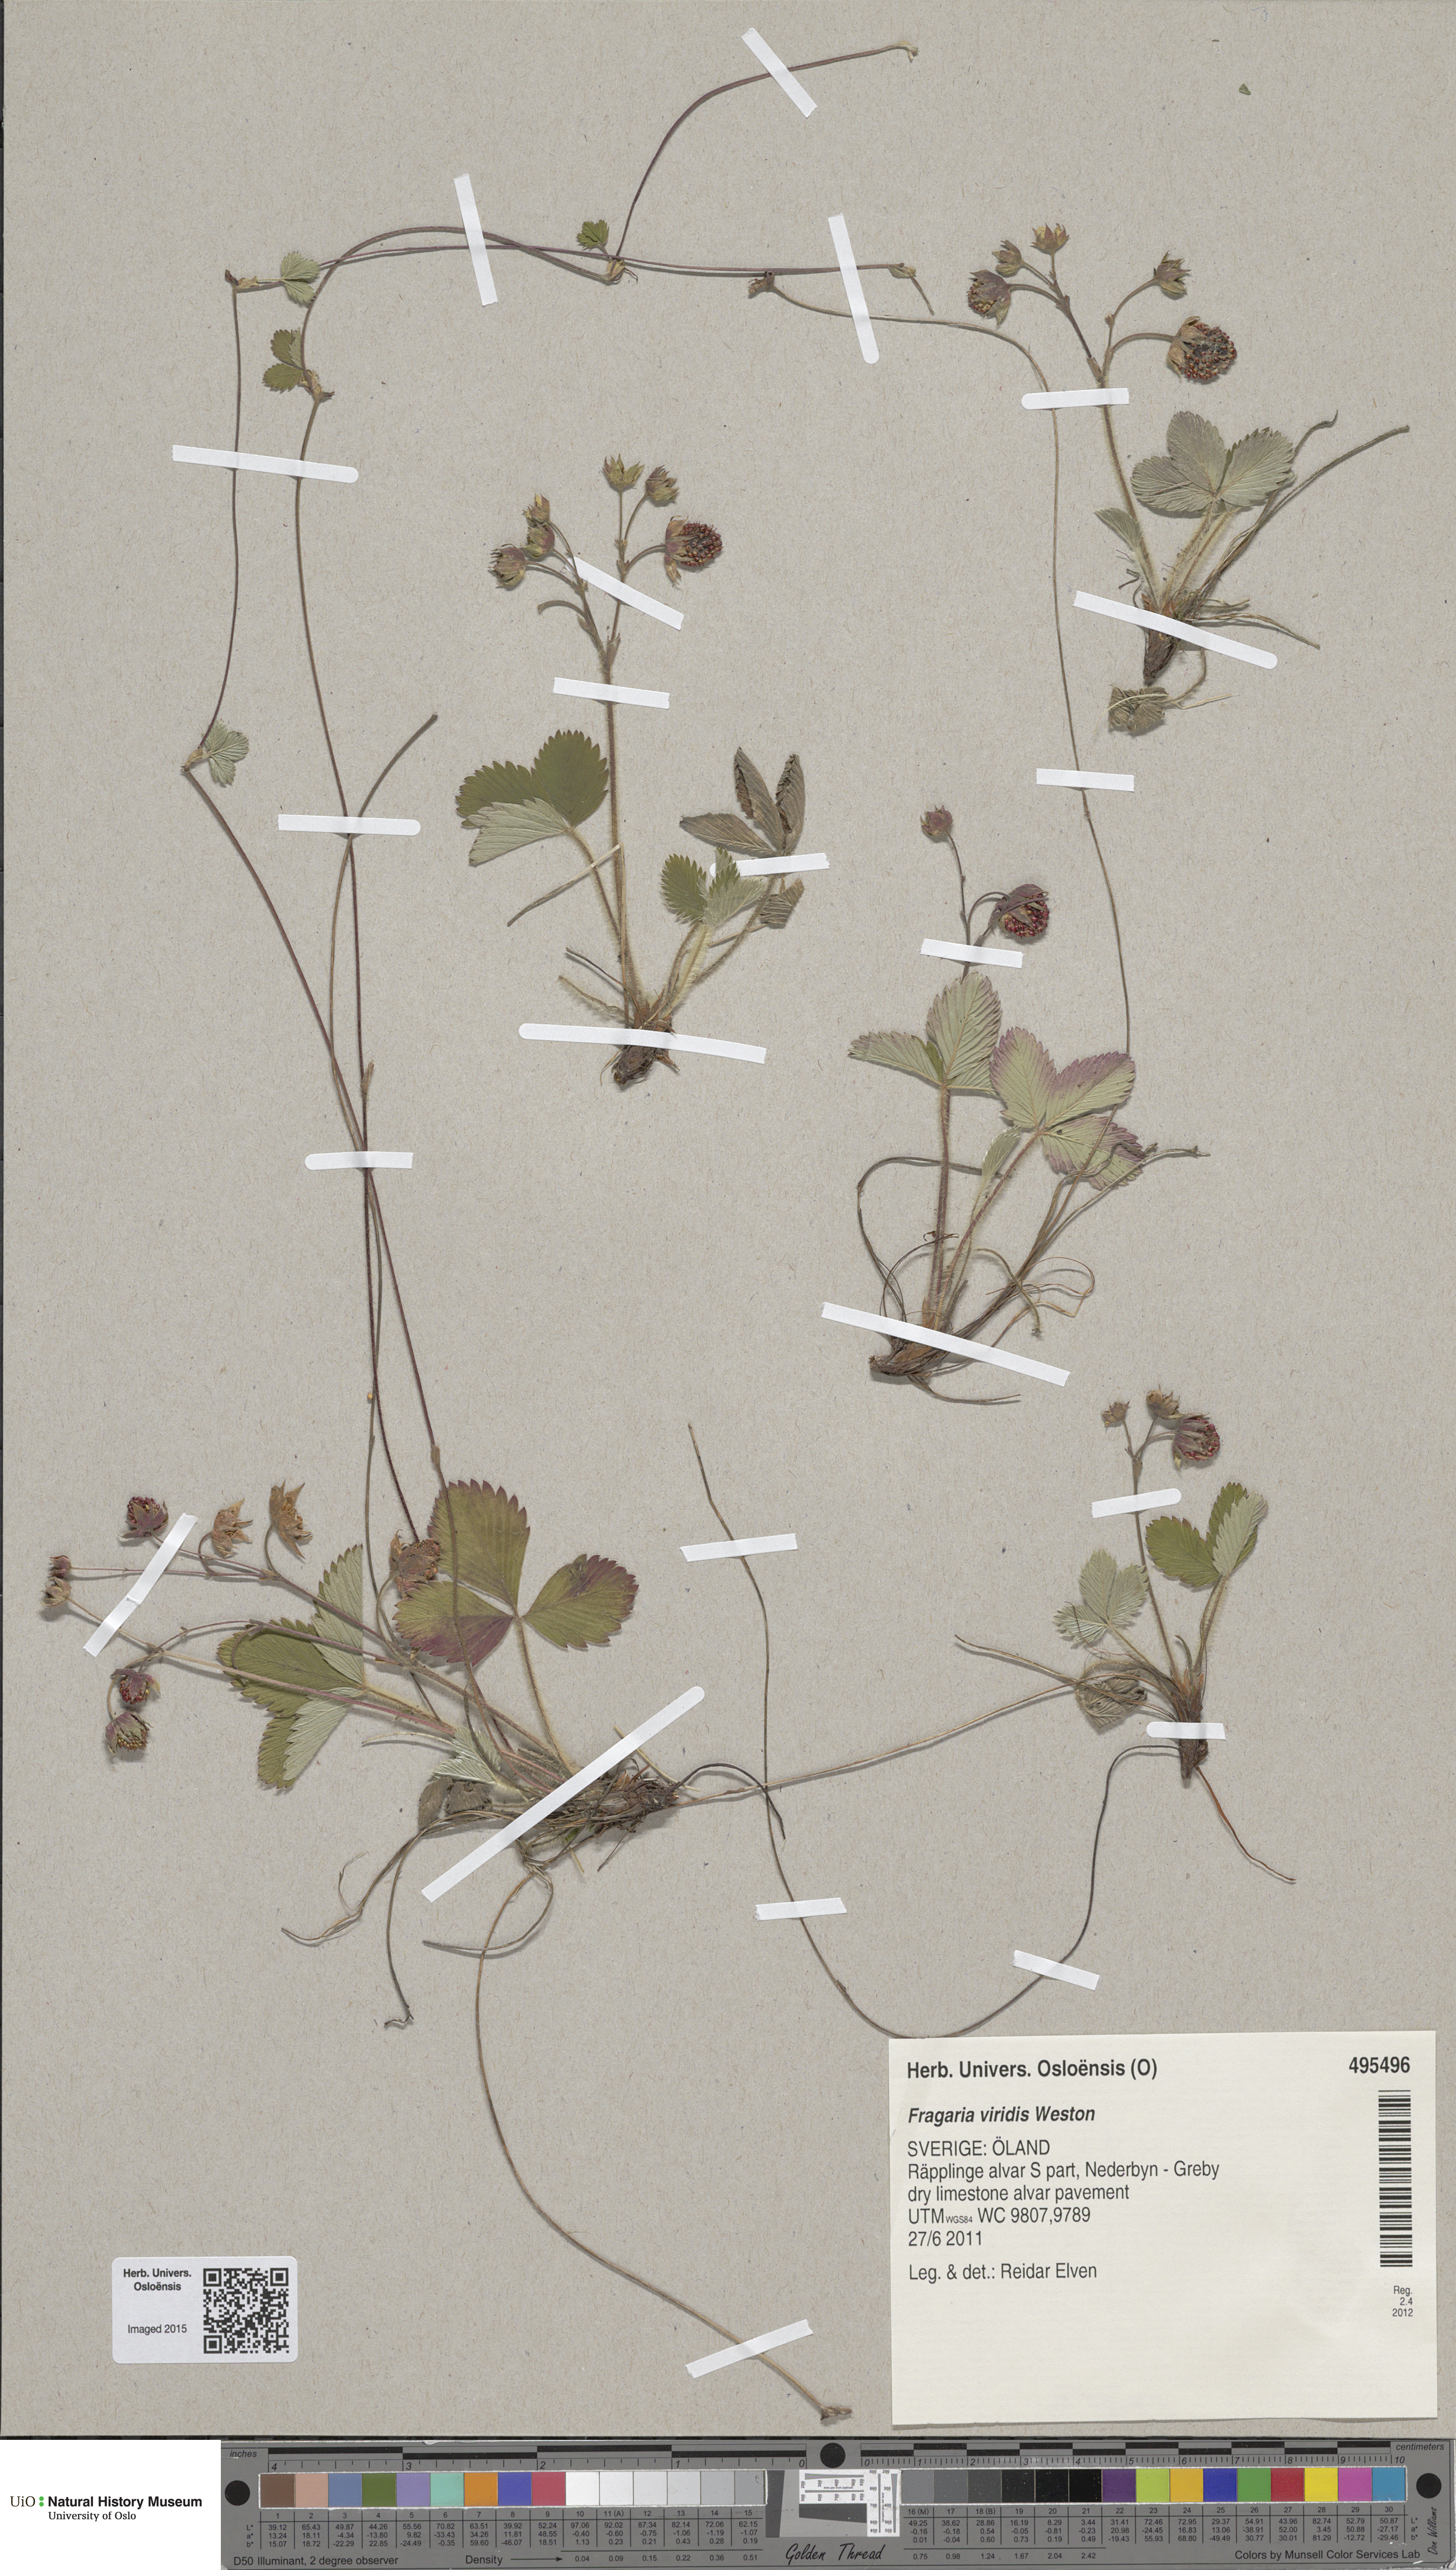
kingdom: Plantae
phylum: Tracheophyta
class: Magnoliopsida
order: Rosales
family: Rosaceae
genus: Fragaria
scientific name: Fragaria viridis
